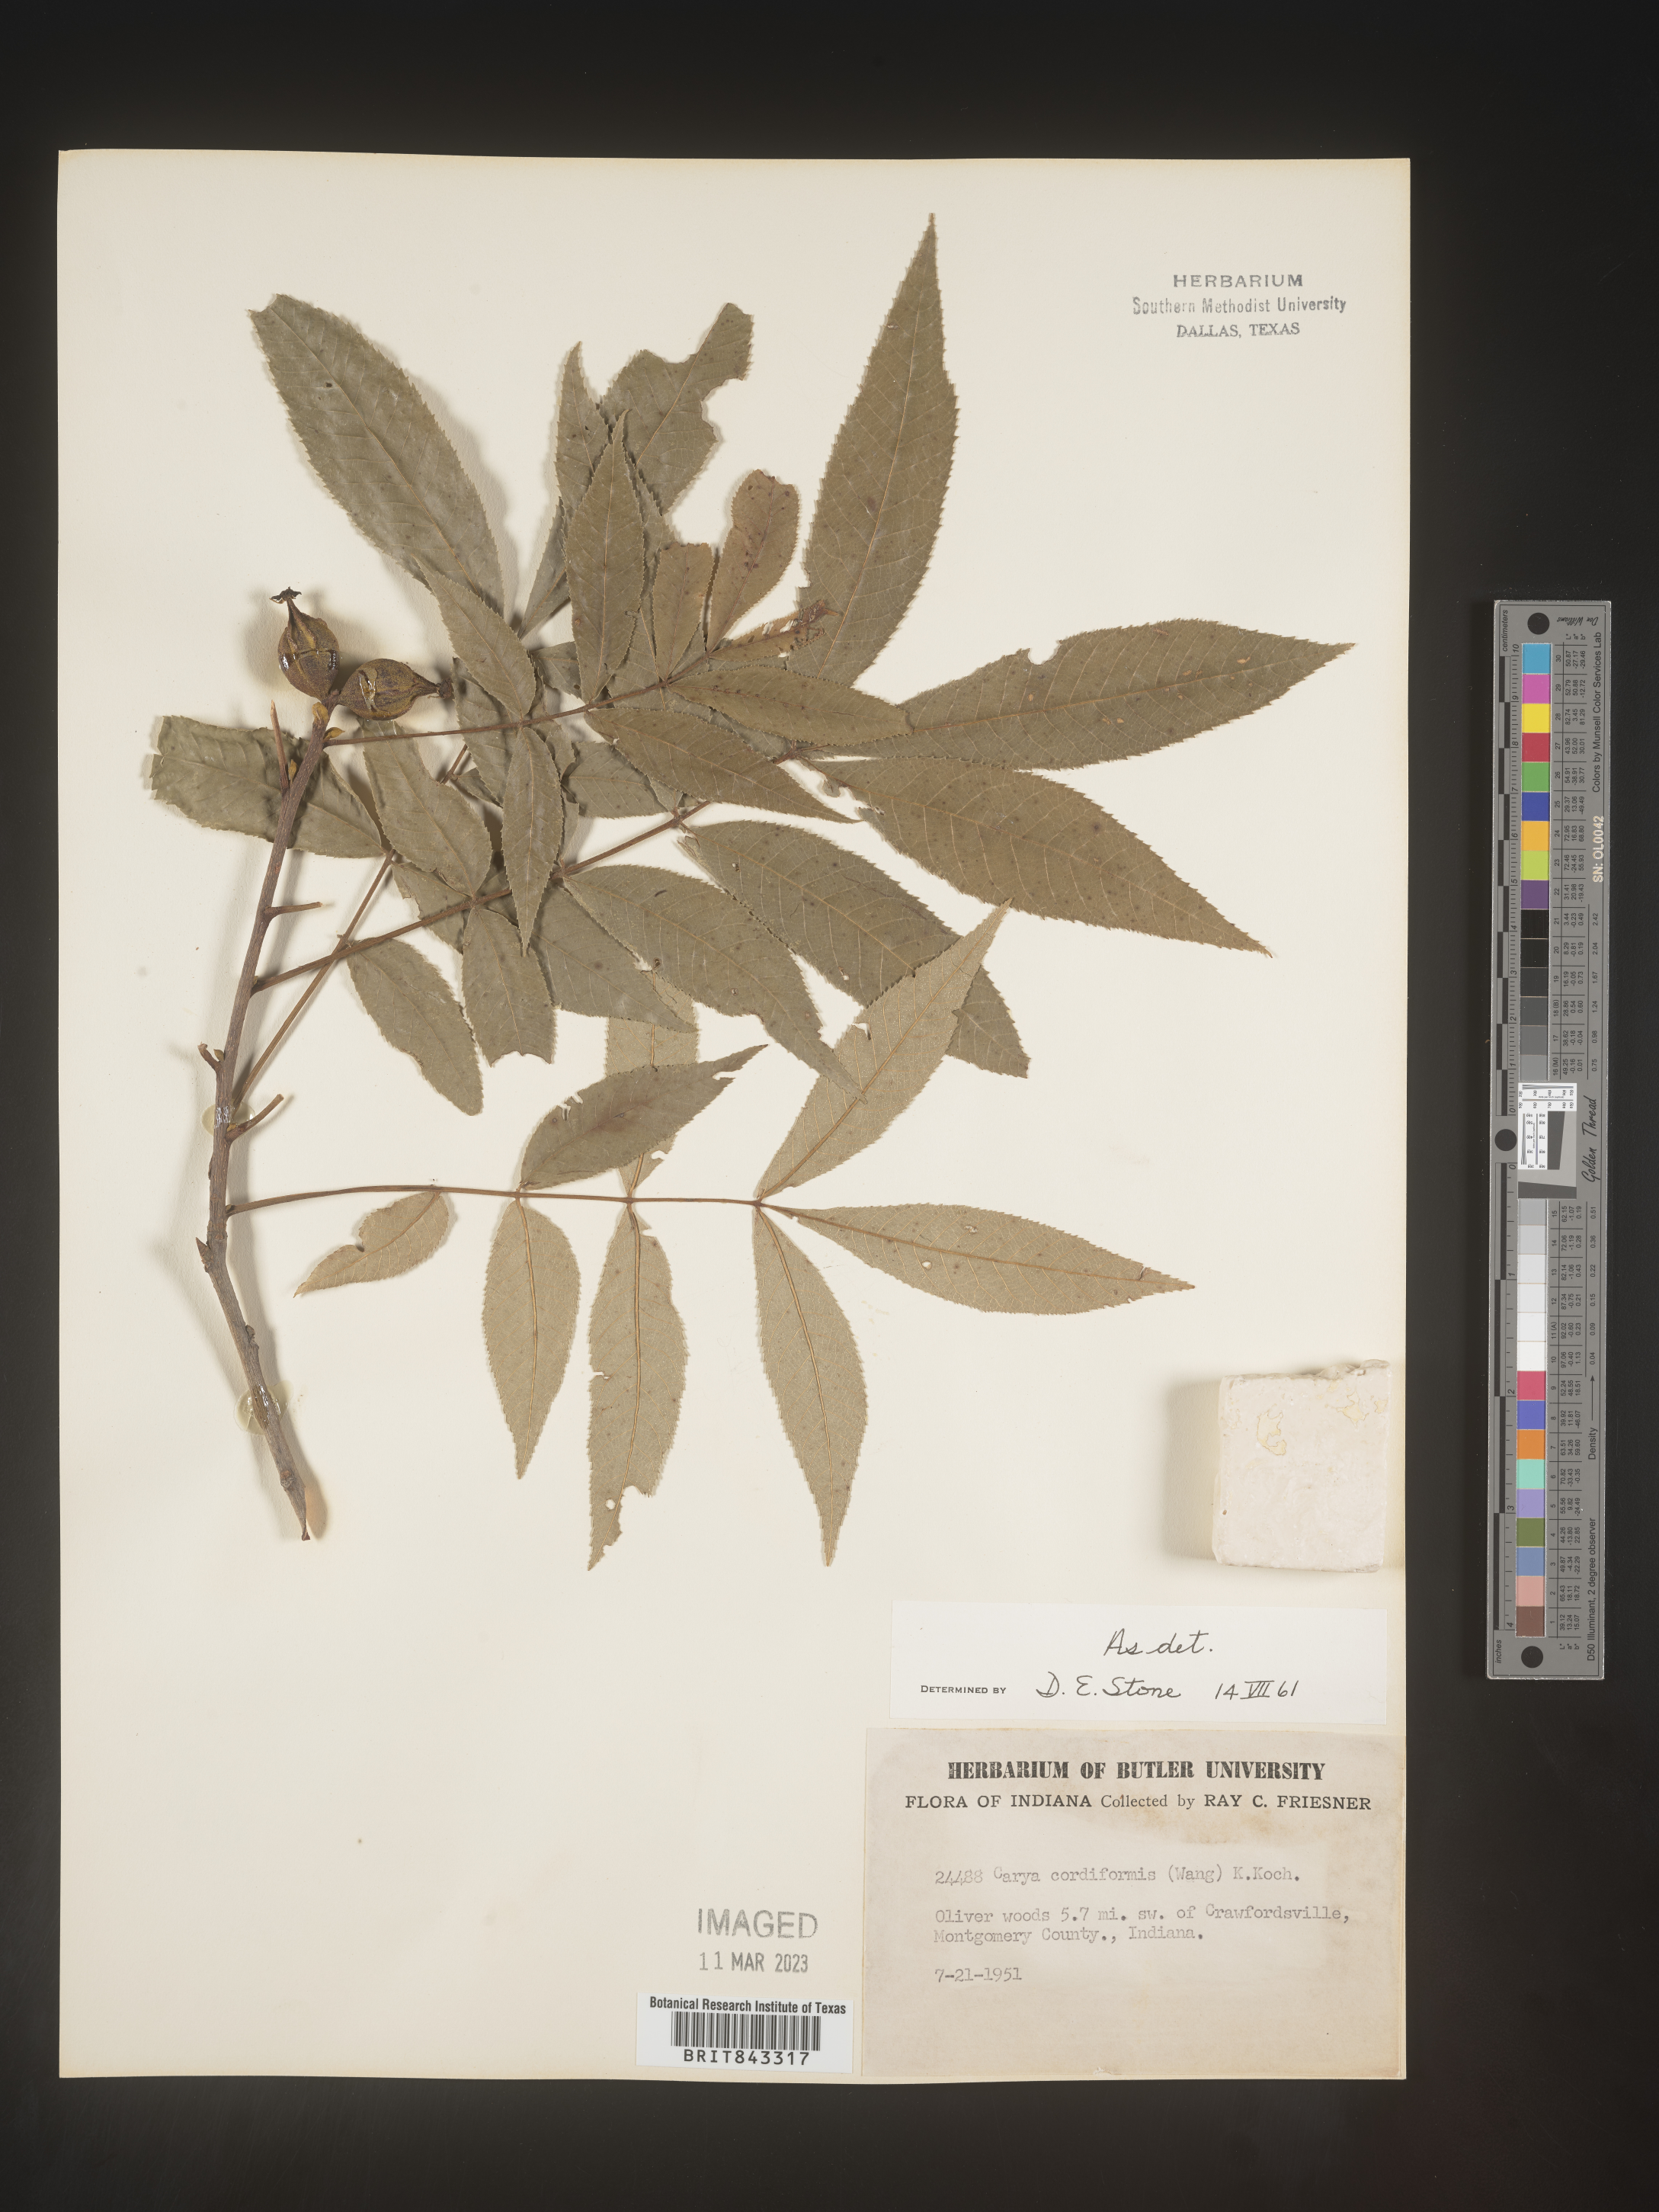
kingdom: Plantae
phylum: Tracheophyta
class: Magnoliopsida
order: Fagales
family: Juglandaceae
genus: Carya
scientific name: Carya cordiformis
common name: Bitternut hickory
